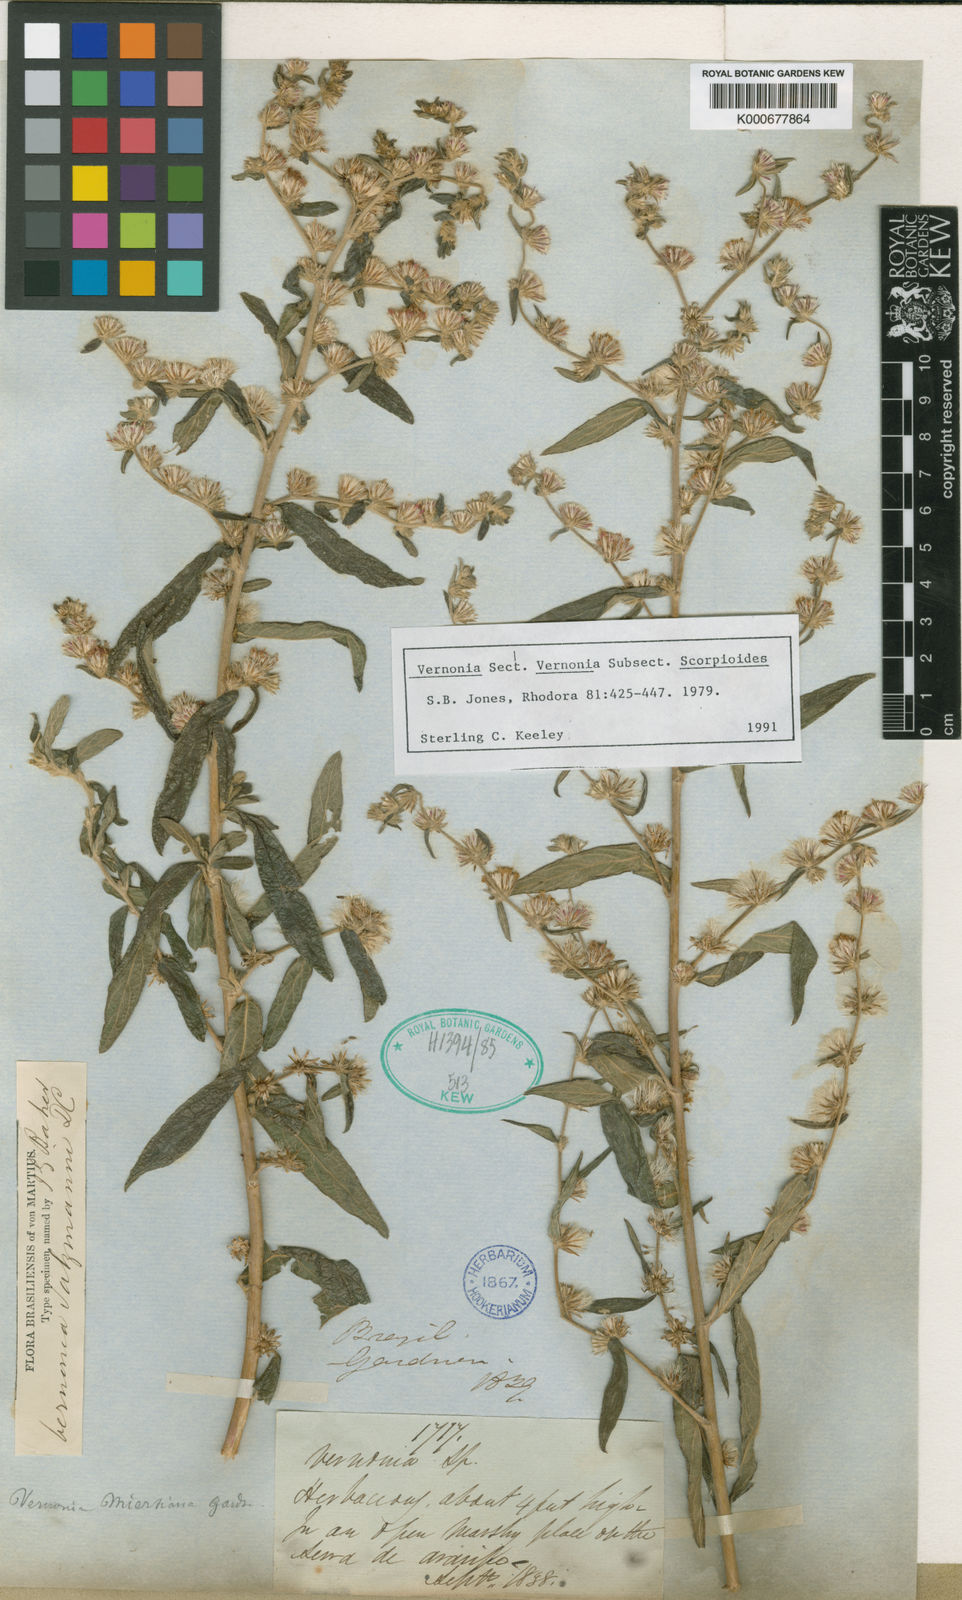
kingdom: Plantae
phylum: Tracheophyta
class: Magnoliopsida
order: Asterales
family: Asteraceae
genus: Lepidaploa
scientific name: Lepidaploa salzmannii
